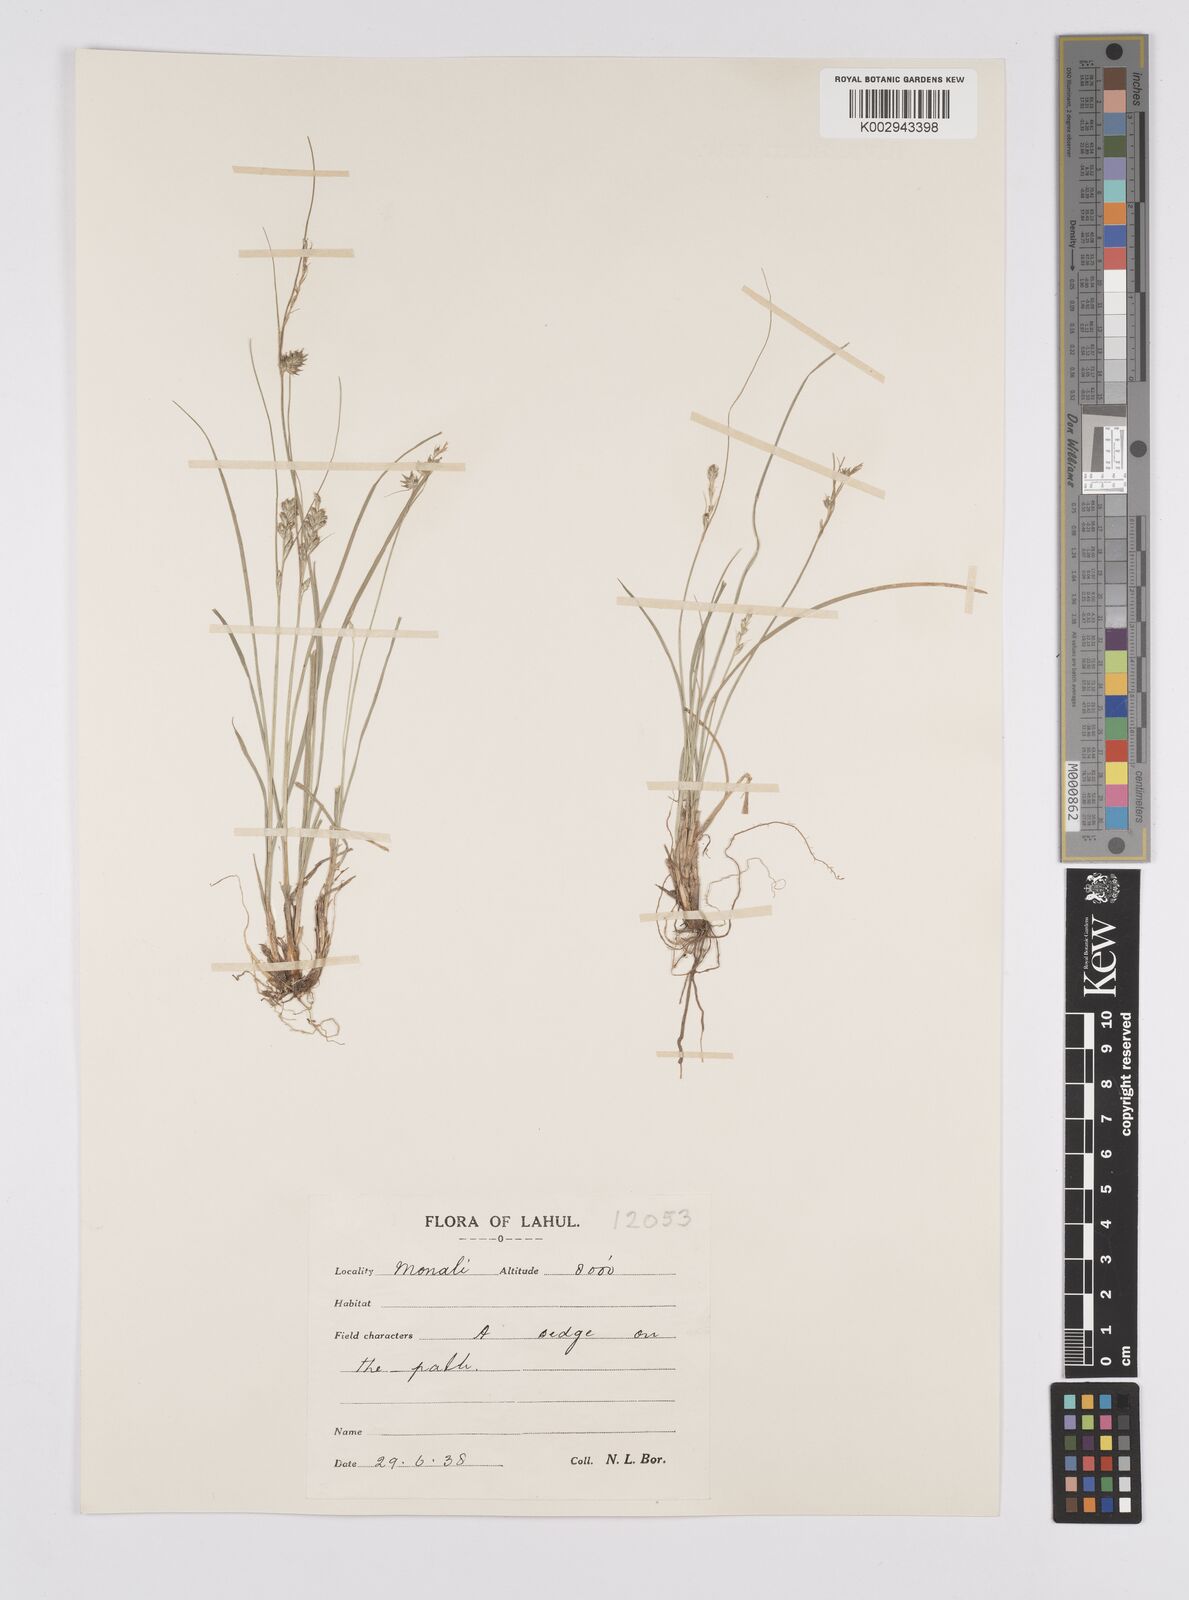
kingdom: Plantae
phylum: Tracheophyta
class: Liliopsida
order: Poales
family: Cyperaceae
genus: Carex
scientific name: Carex nubigena
